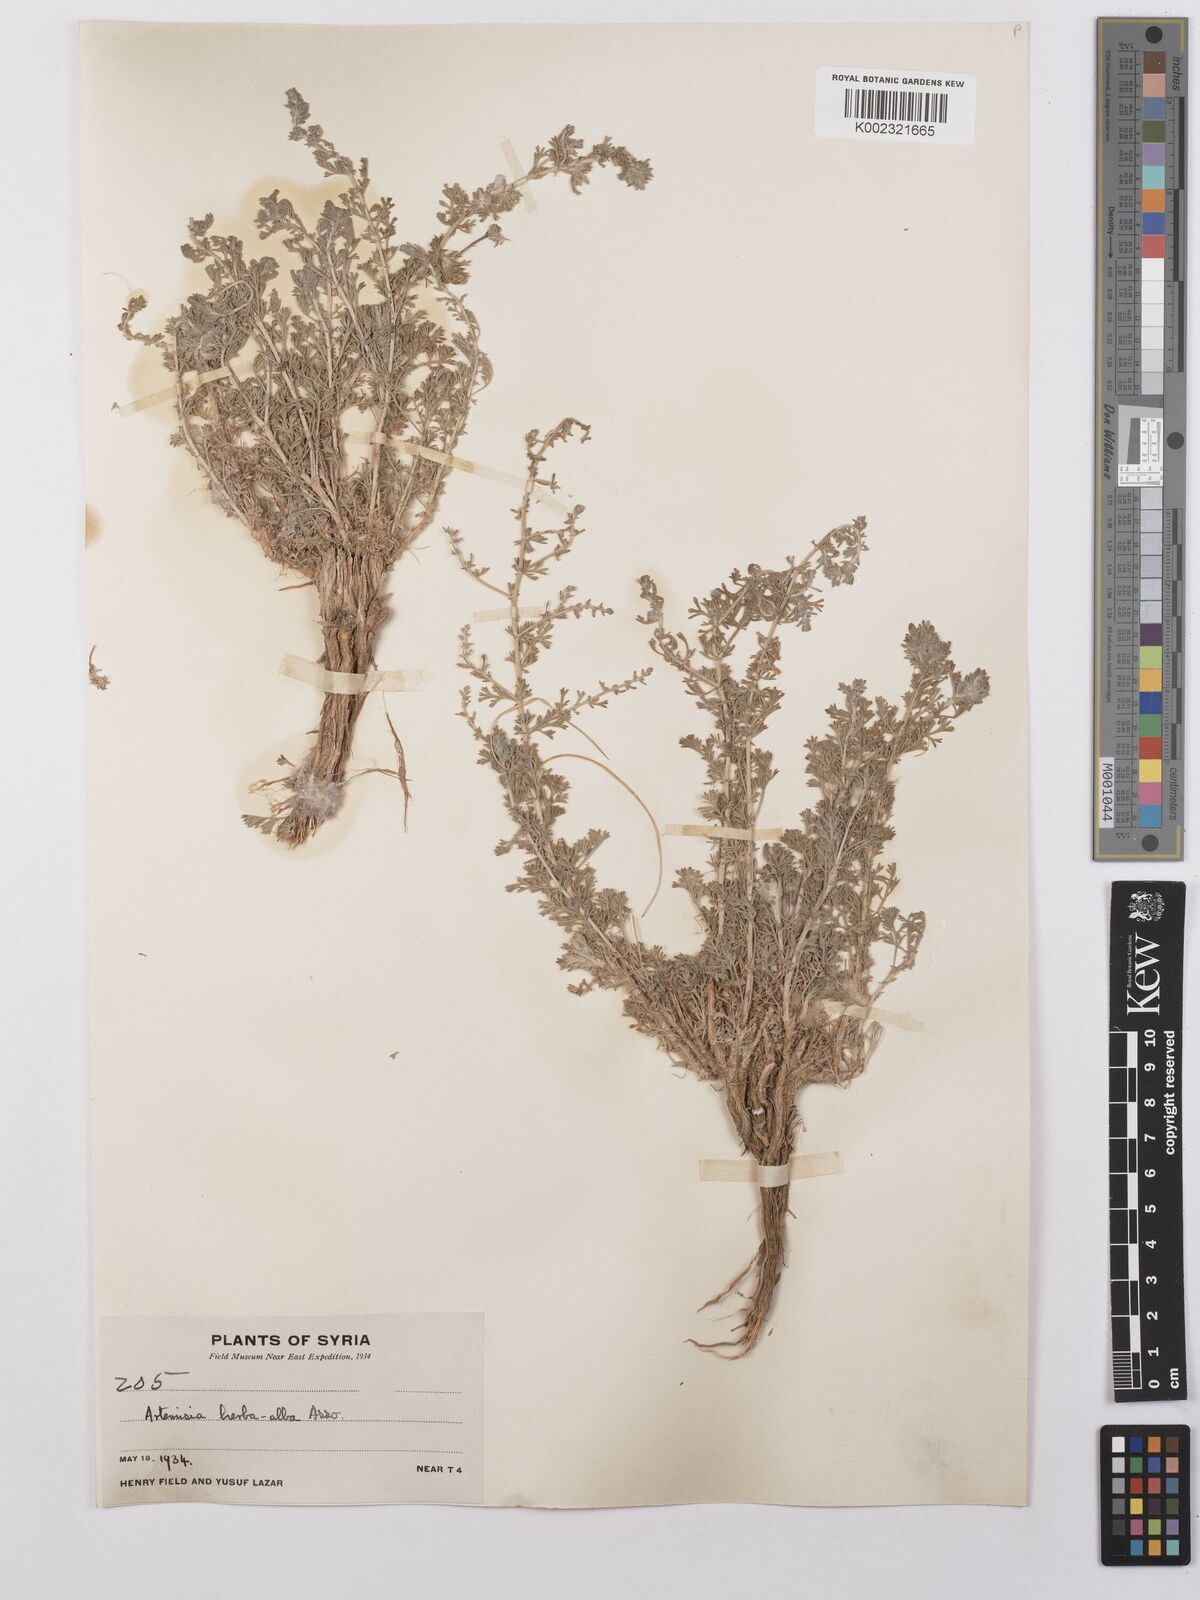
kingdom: Plantae
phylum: Tracheophyta
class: Magnoliopsida
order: Asterales
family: Asteraceae
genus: Artemisia
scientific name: Artemisia herba-alba
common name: White wormwood
